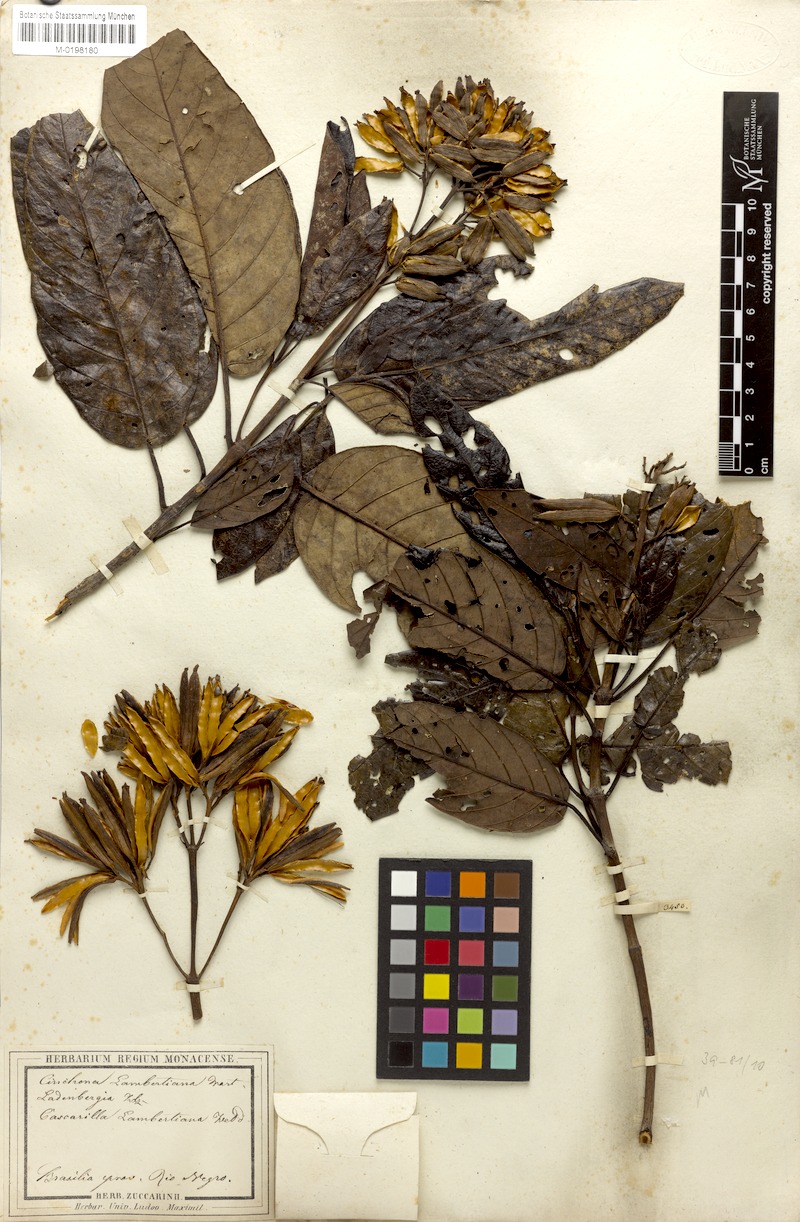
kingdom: Plantae
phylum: Tracheophyta
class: Magnoliopsida
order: Gentianales
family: Rubiaceae
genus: Ladenbergia
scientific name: Ladenbergia lambertiana
